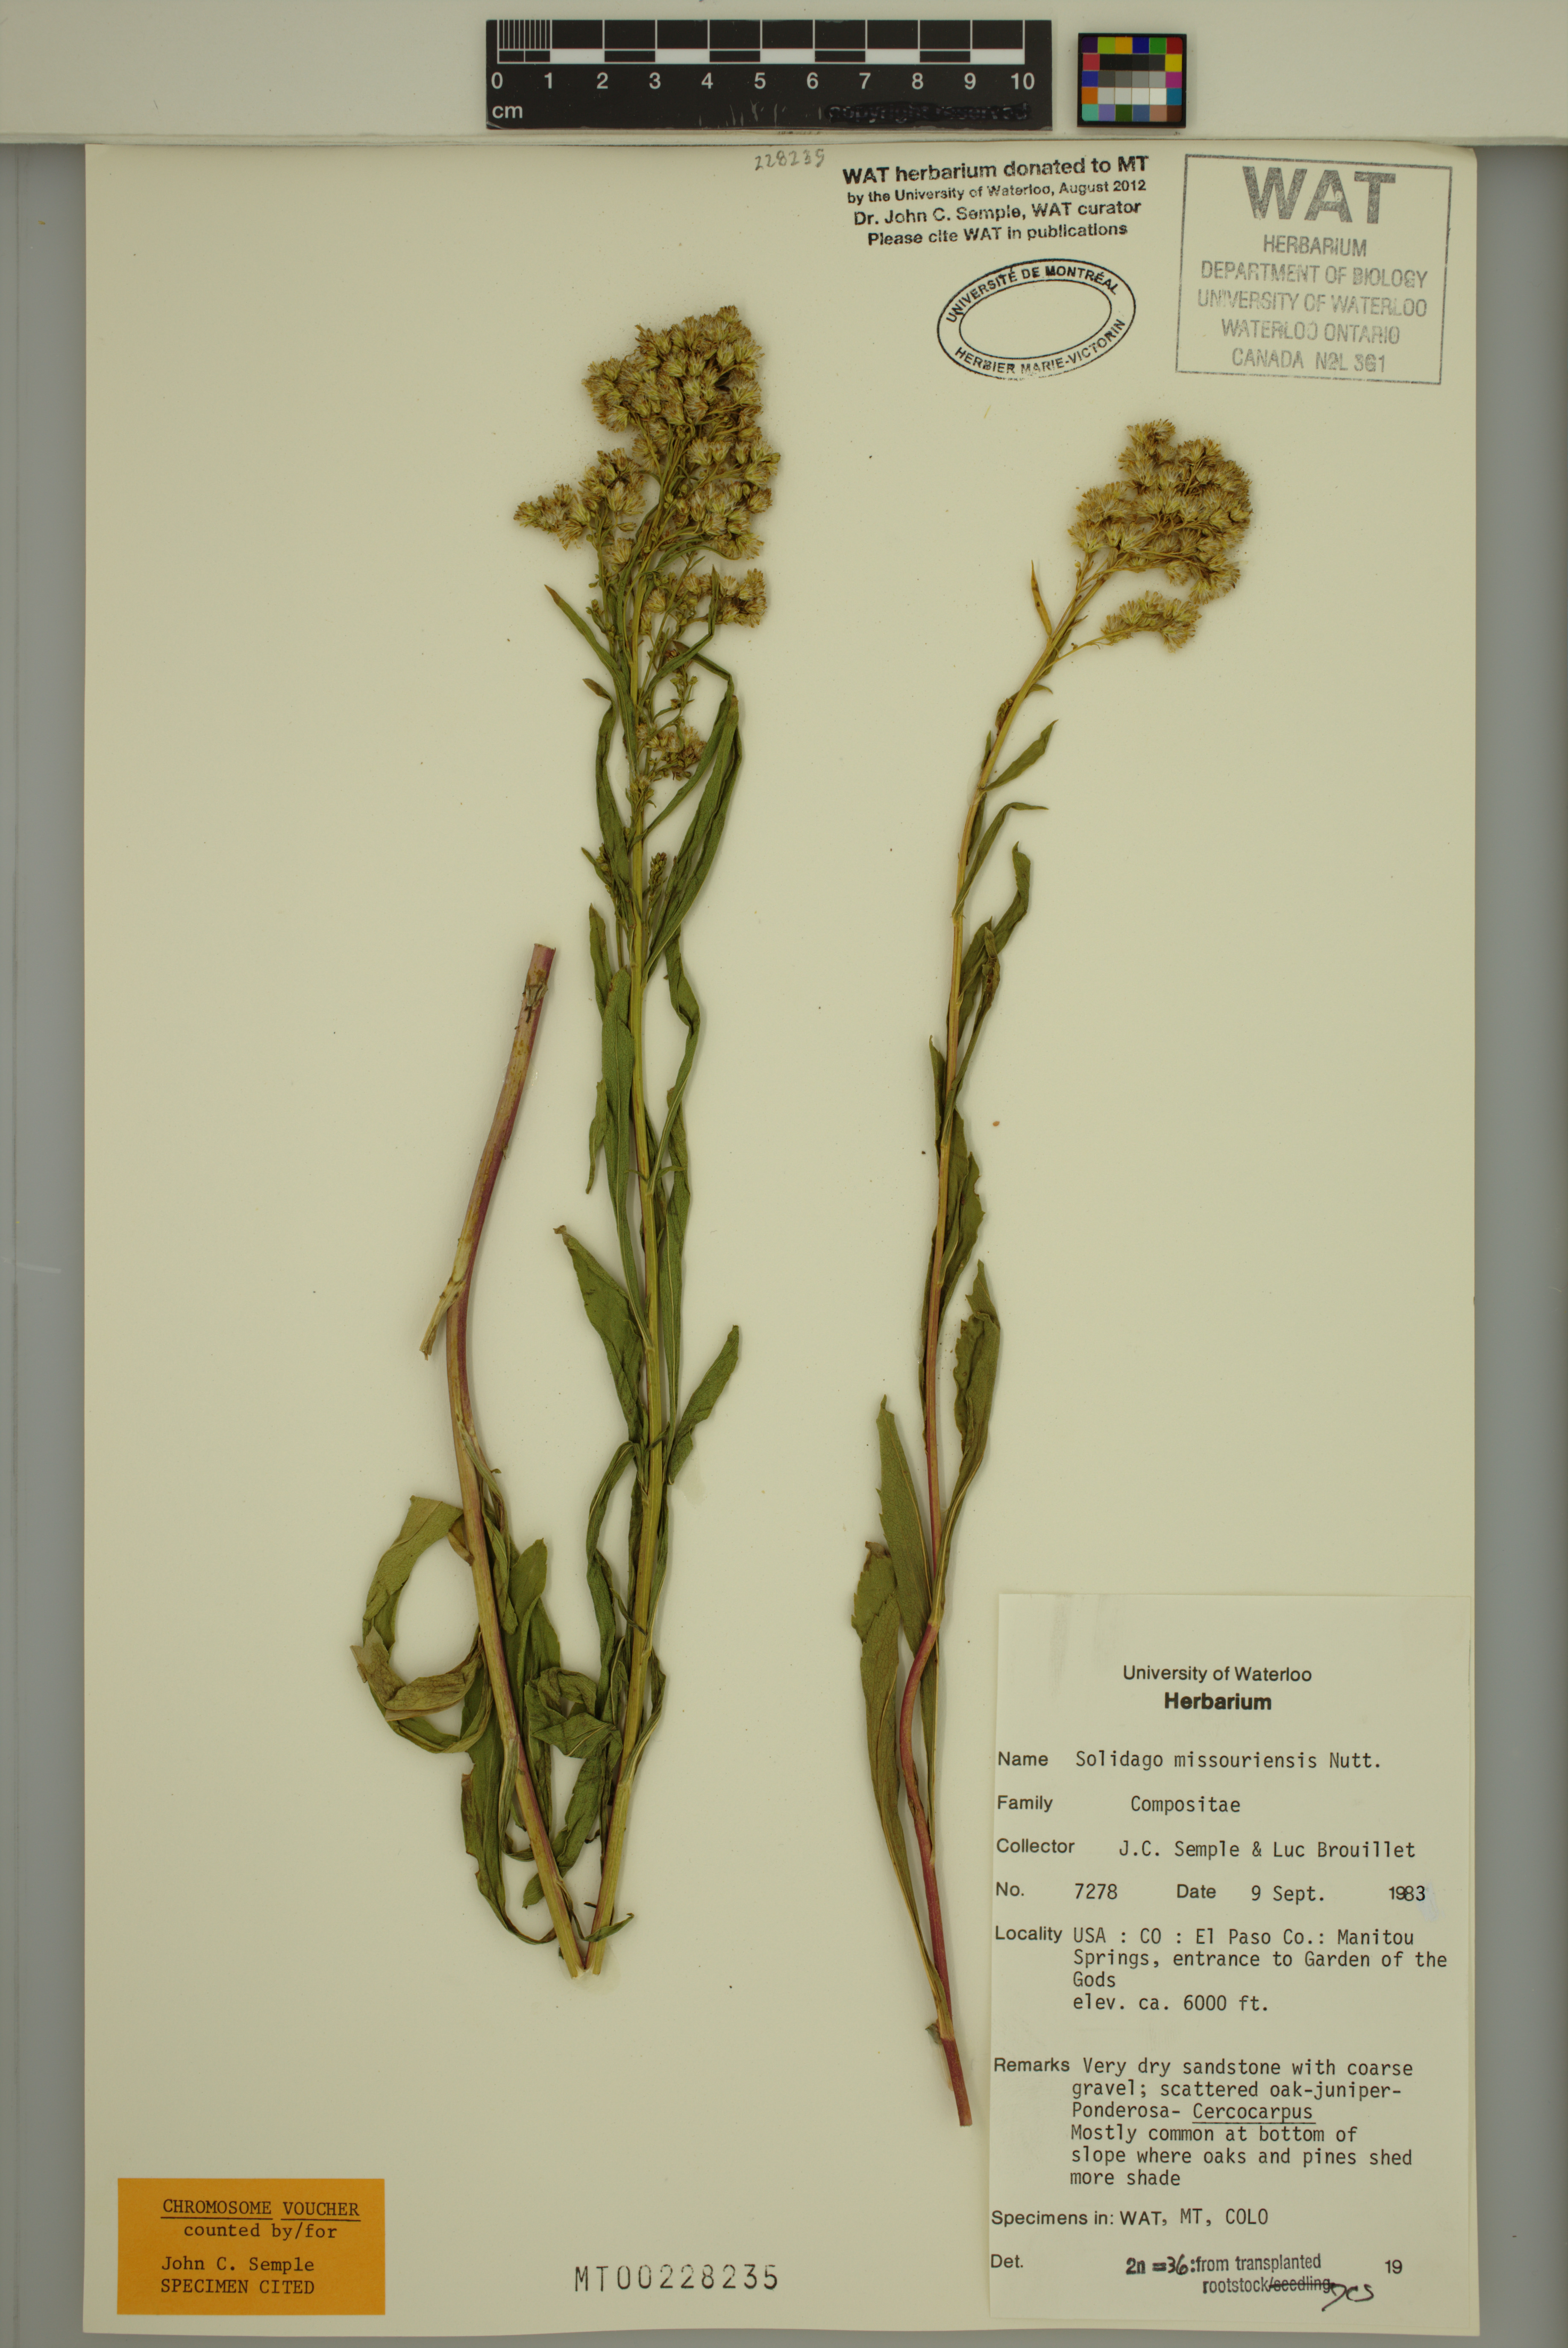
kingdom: Plantae
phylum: Tracheophyta
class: Magnoliopsida
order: Asterales
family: Asteraceae
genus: Solidago
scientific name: Solidago missouriensis
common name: Prairie goldenrod
